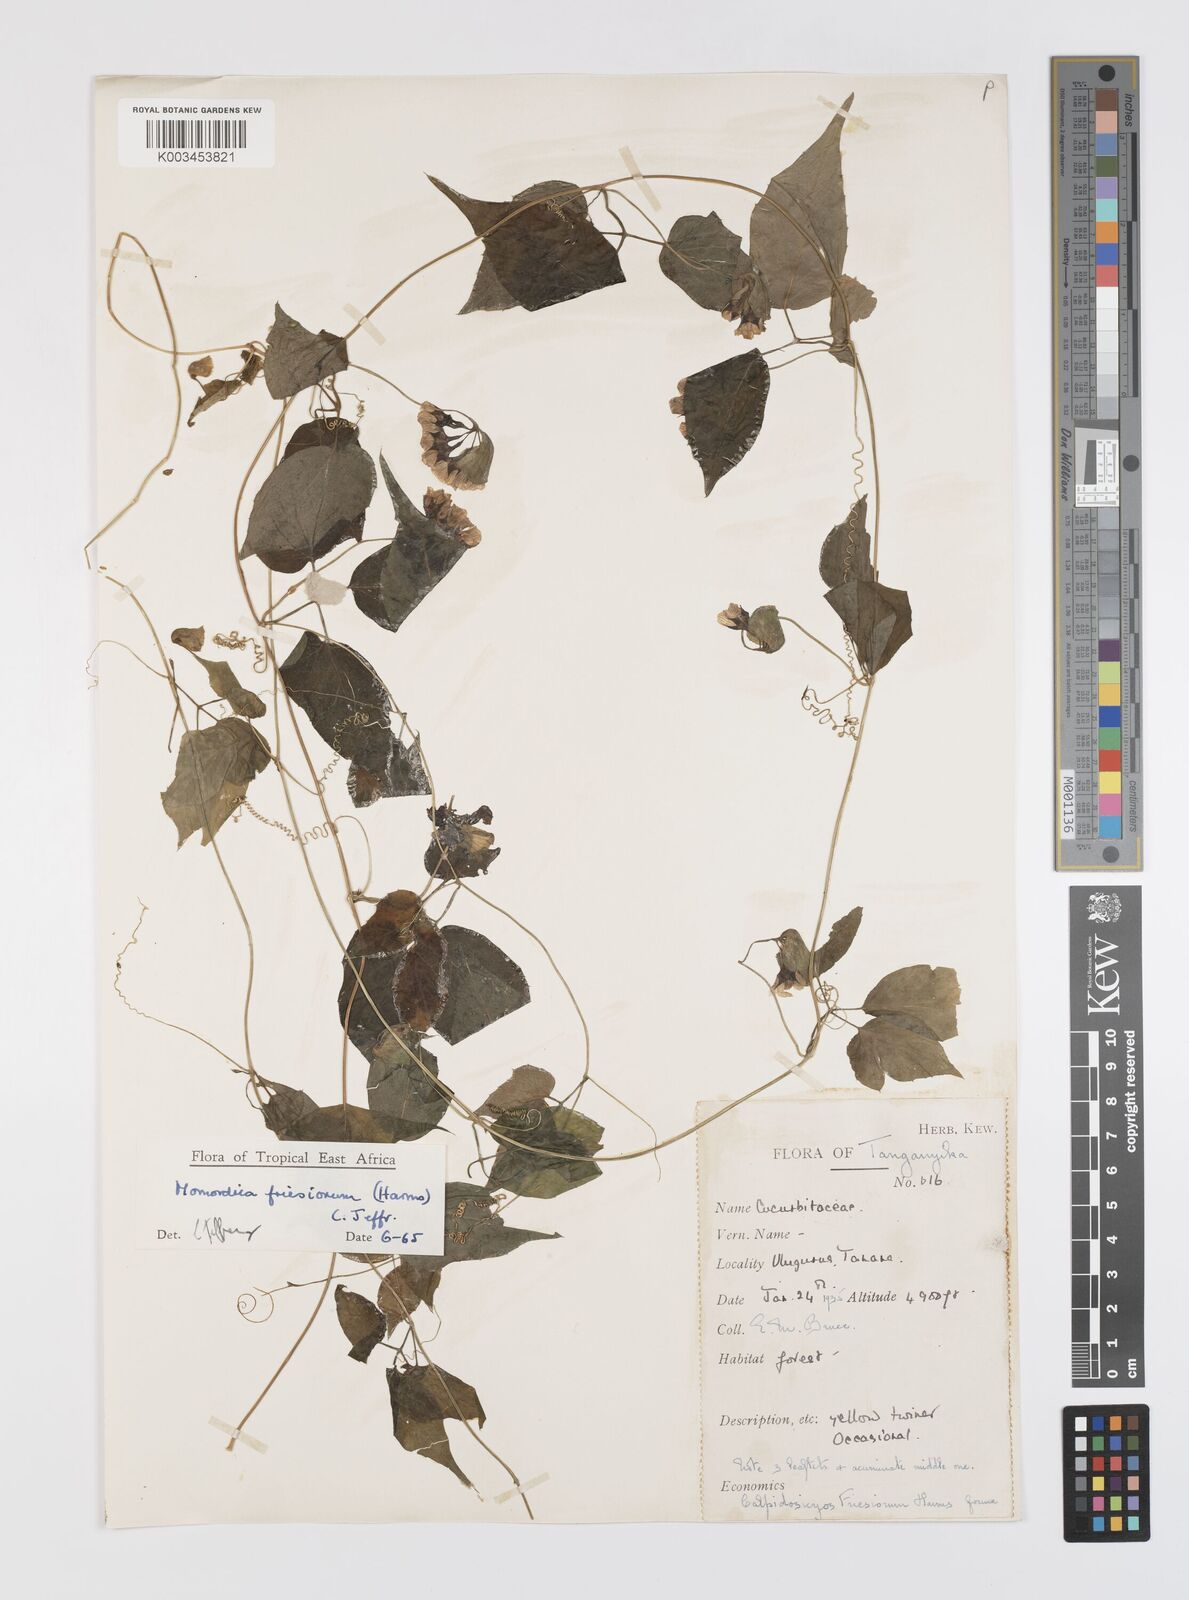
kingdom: Plantae
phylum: Tracheophyta
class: Magnoliopsida
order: Cucurbitales
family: Cucurbitaceae
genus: Momordica
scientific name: Momordica friesiorum
